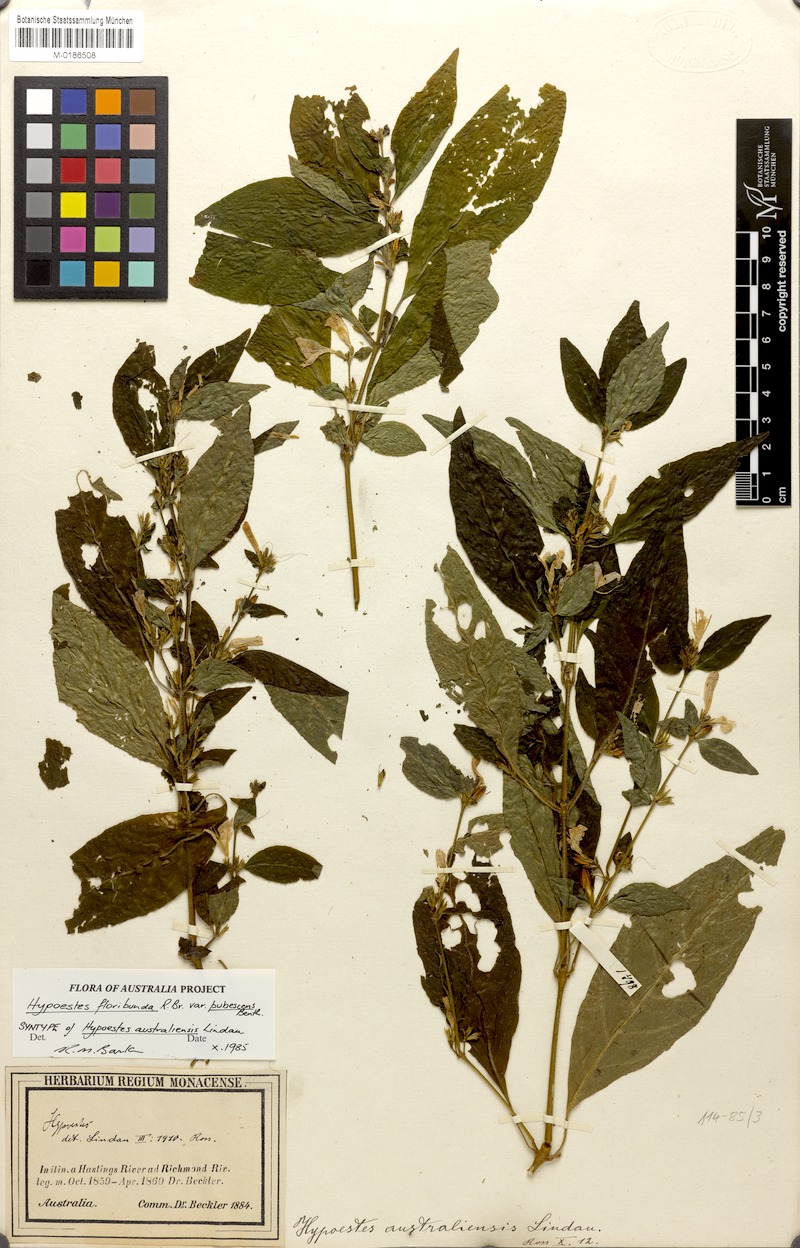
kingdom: Plantae
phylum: Tracheophyta
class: Magnoliopsida
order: Lamiales
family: Acanthaceae
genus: Hypoestes
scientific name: Hypoestes floribunda
